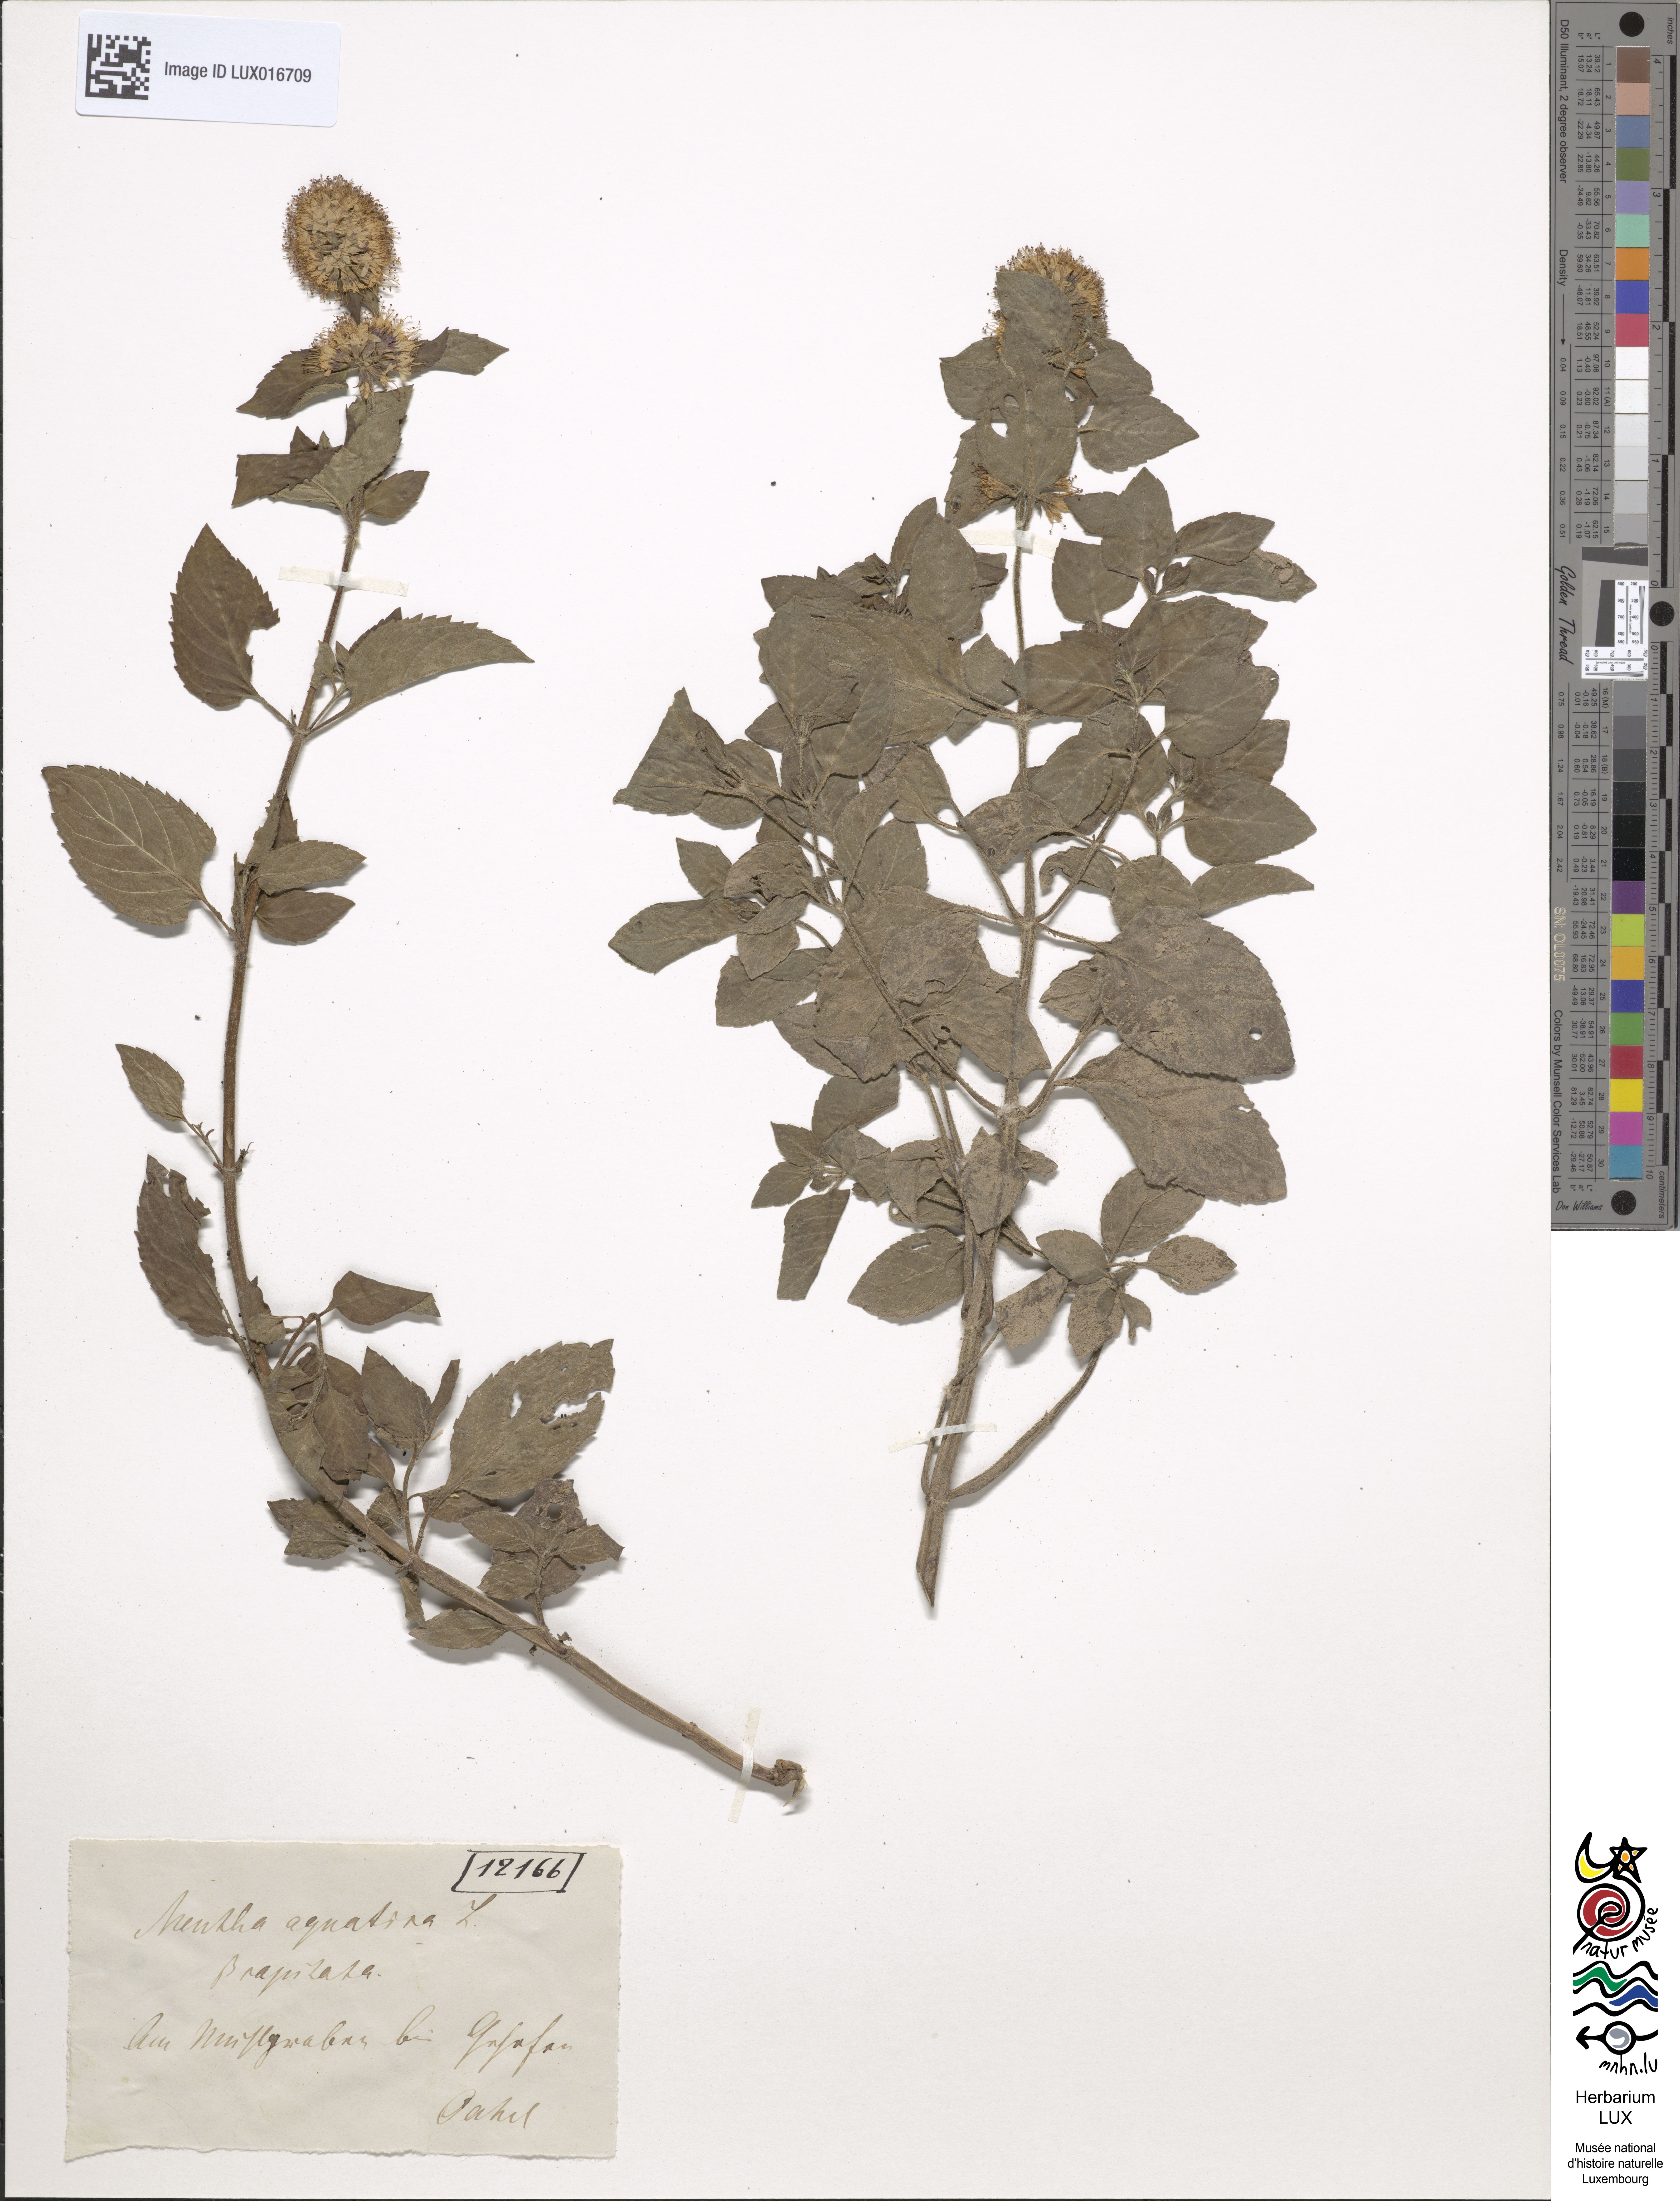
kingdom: Plantae
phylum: Tracheophyta
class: Magnoliopsida
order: Lamiales
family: Lamiaceae
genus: Mentha
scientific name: Mentha aquatica
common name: Water mint
